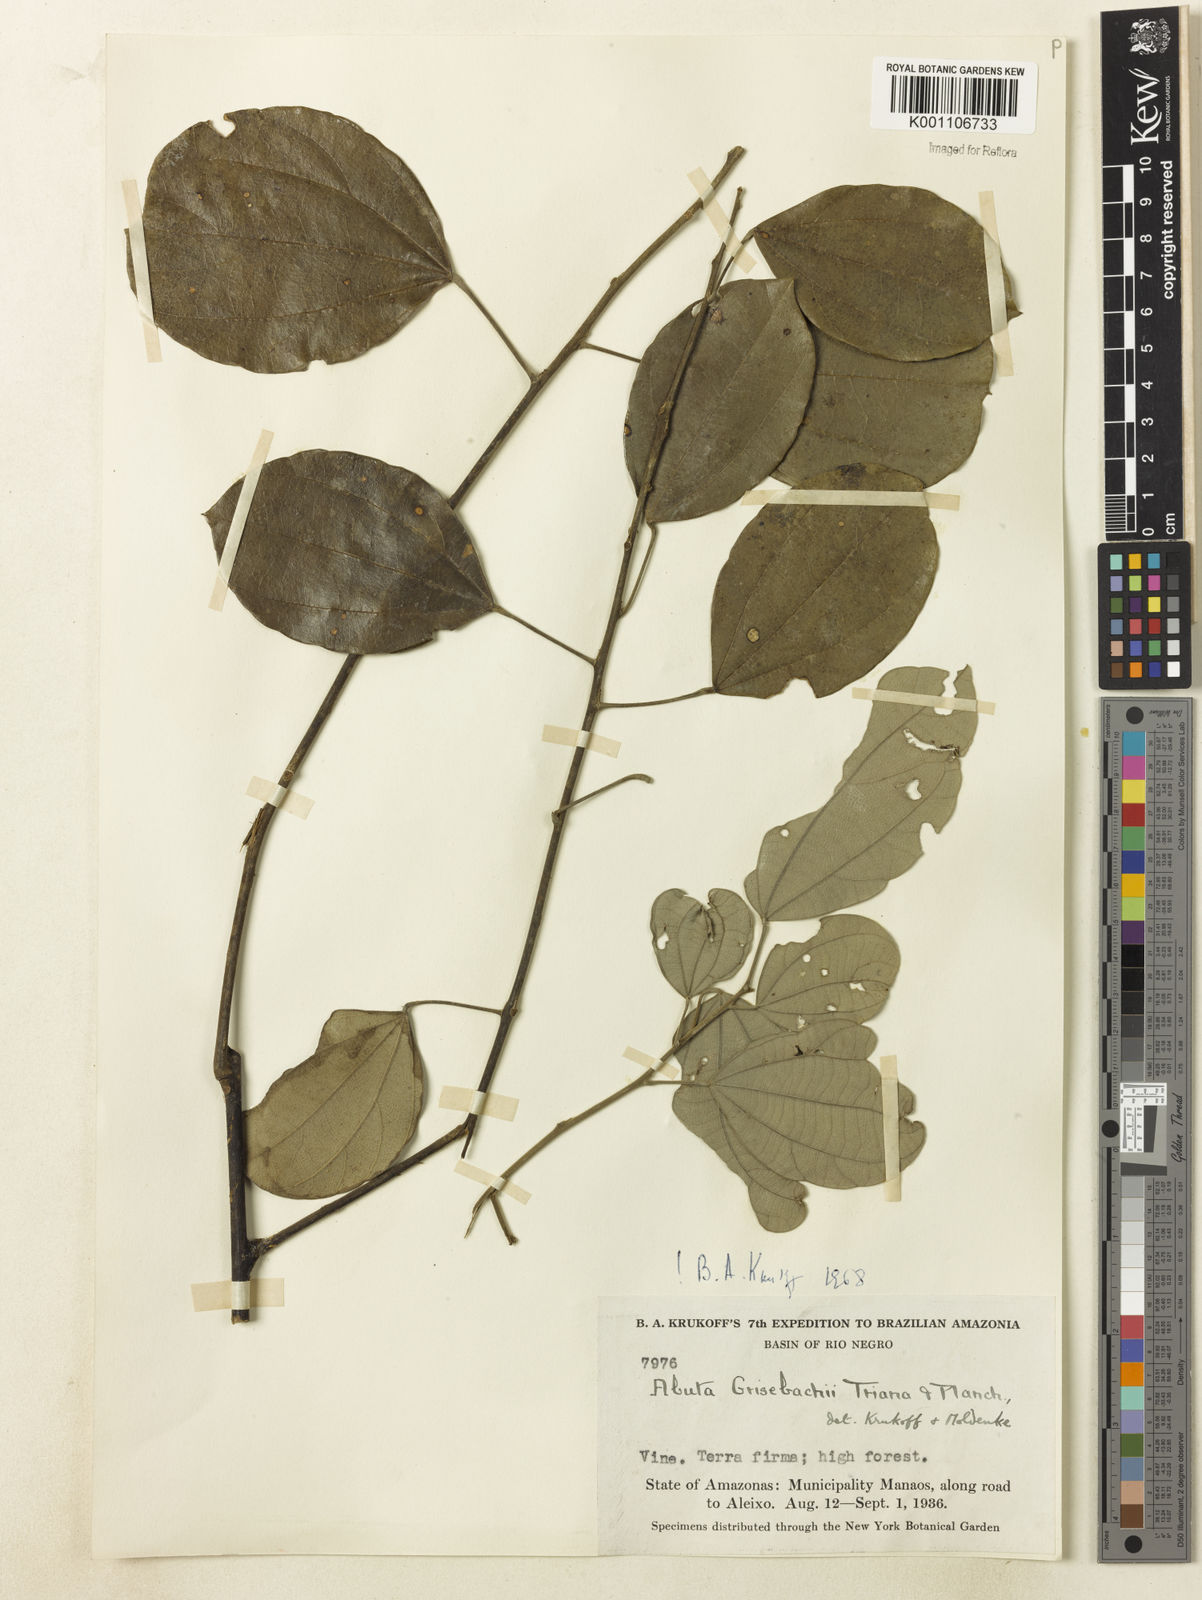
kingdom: Plantae
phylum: Tracheophyta
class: Magnoliopsida
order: Ranunculales
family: Menispermaceae
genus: Abuta
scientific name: Abuta grisebachii
